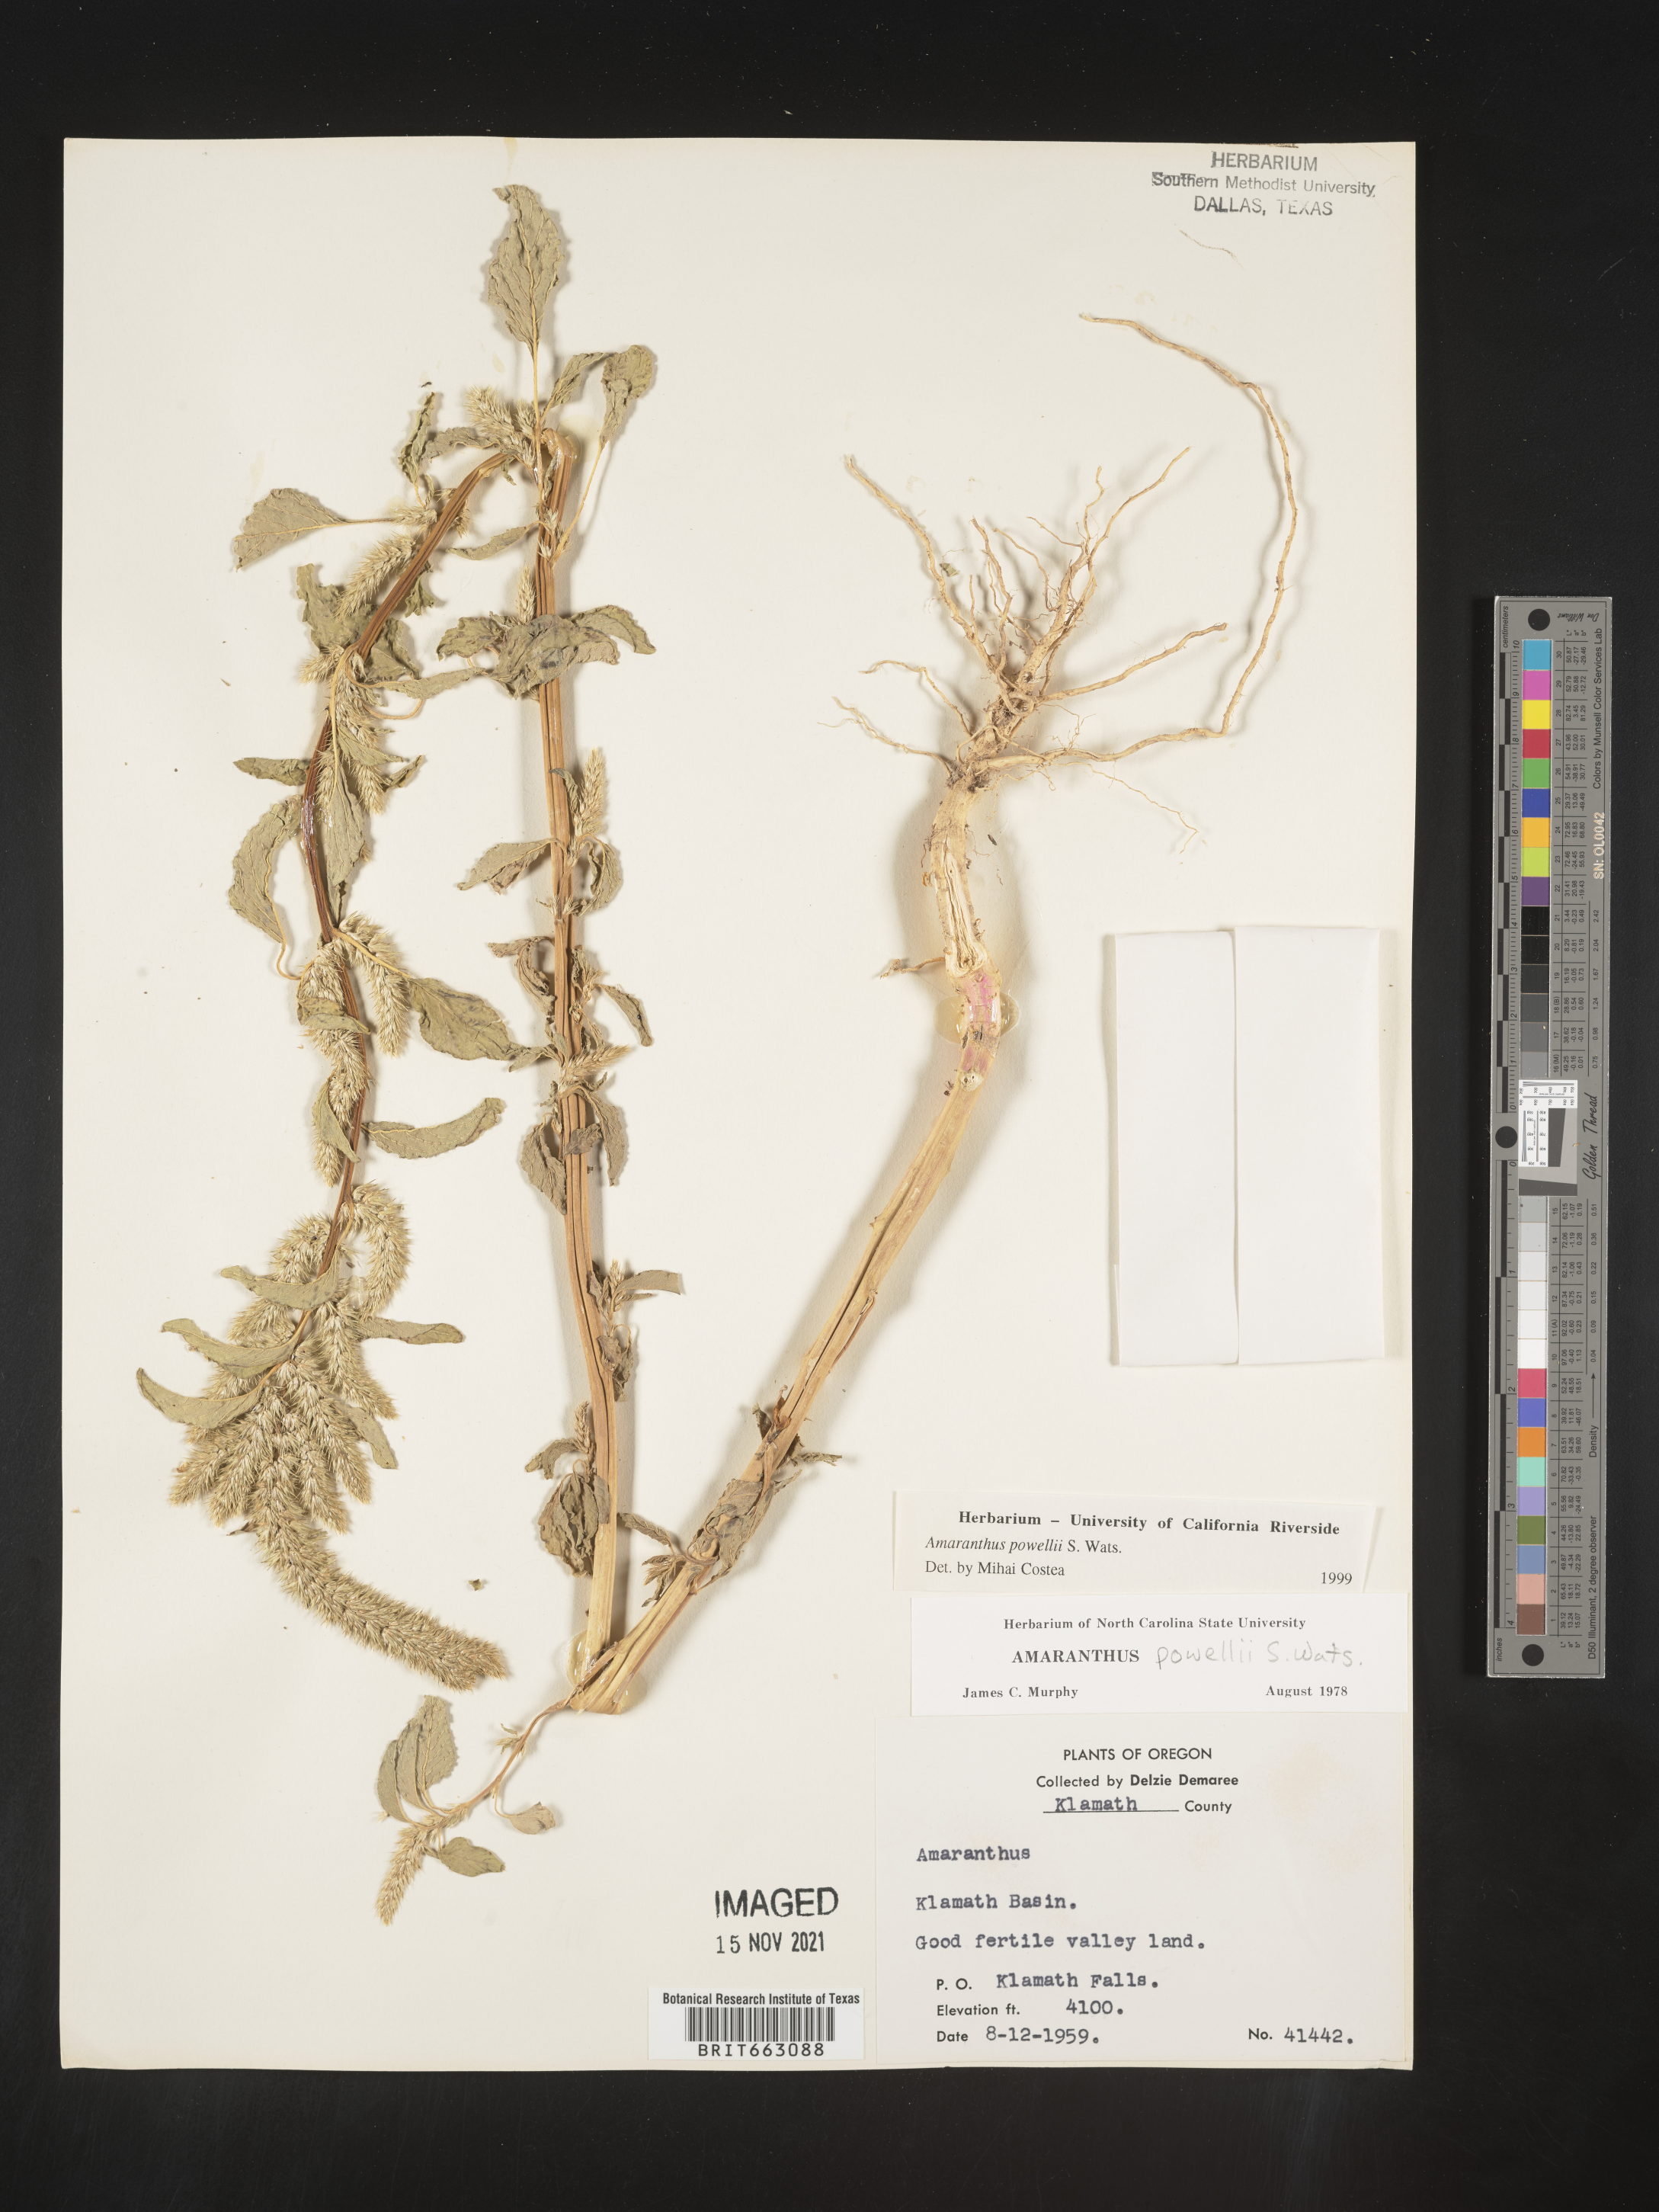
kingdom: Plantae
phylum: Tracheophyta
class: Magnoliopsida
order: Caryophyllales
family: Amaranthaceae
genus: Amaranthus
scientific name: Amaranthus powellii
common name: Powell's amaranth
